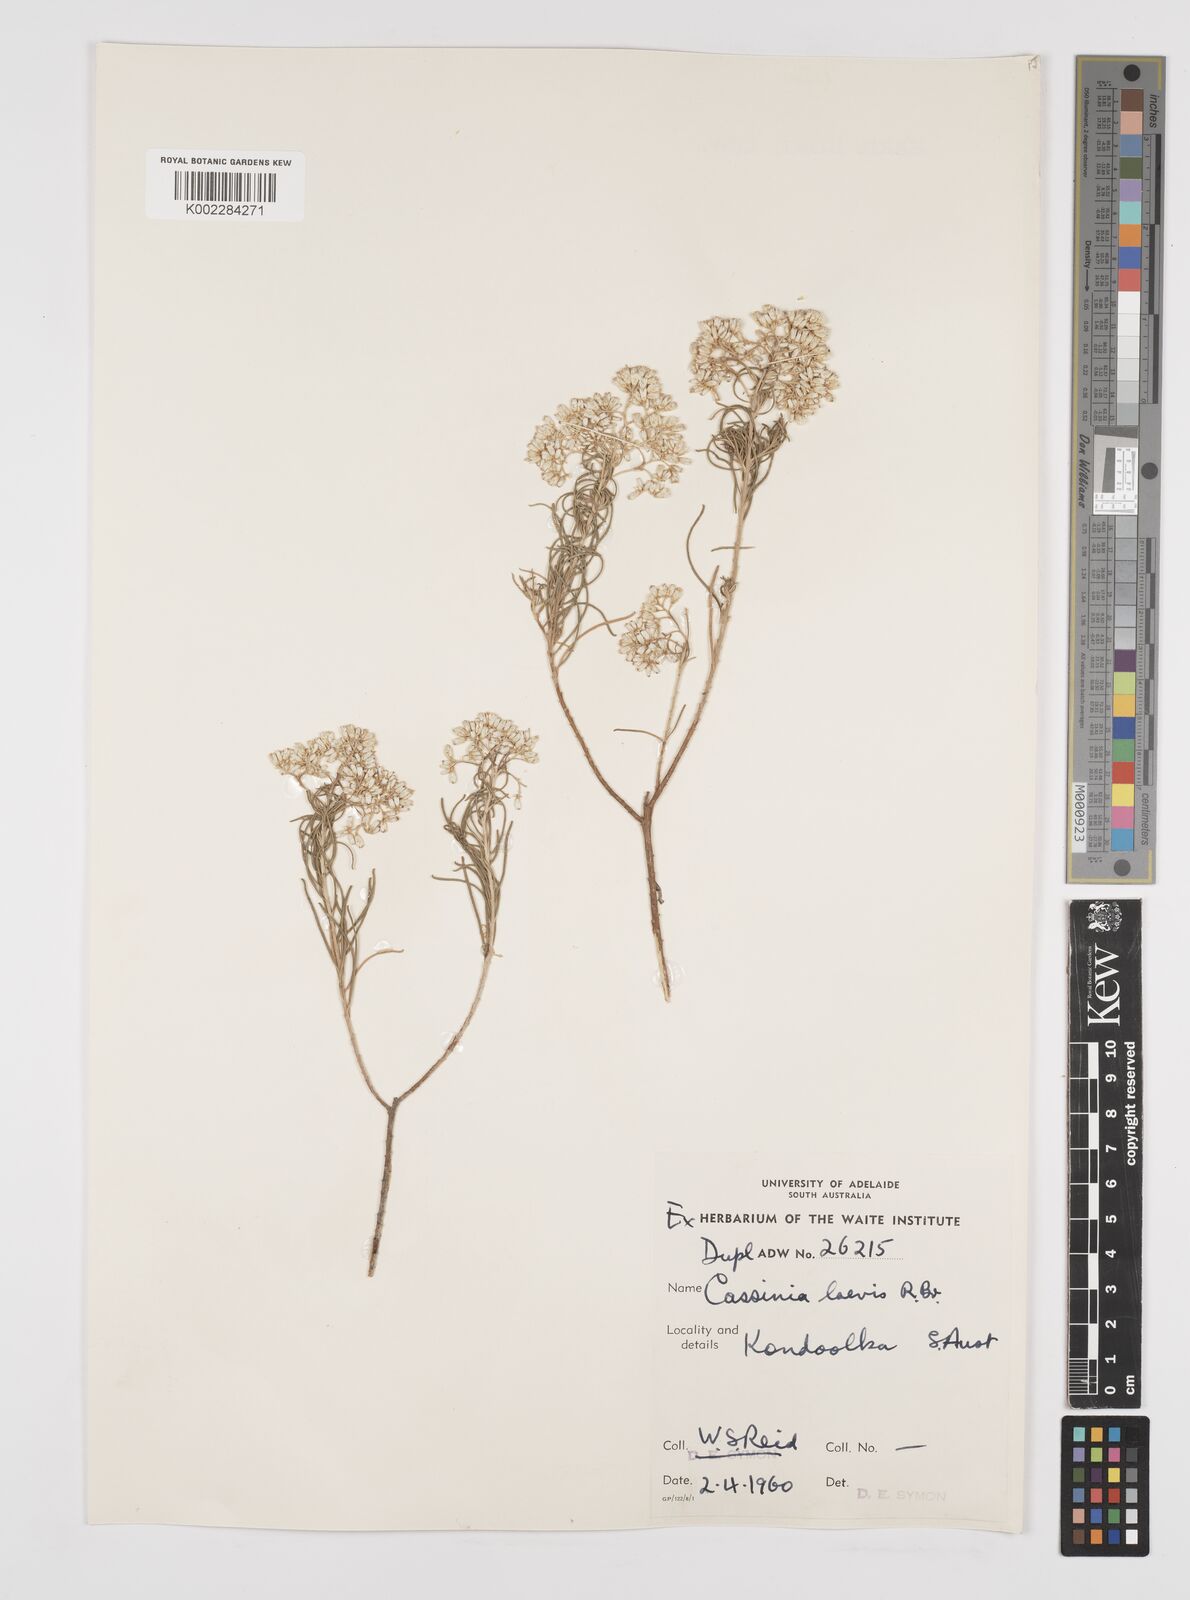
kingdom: Plantae
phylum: Tracheophyta
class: Magnoliopsida
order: Asterales
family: Asteraceae
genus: Cassinia
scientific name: Cassinia laevis
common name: Coughbush
